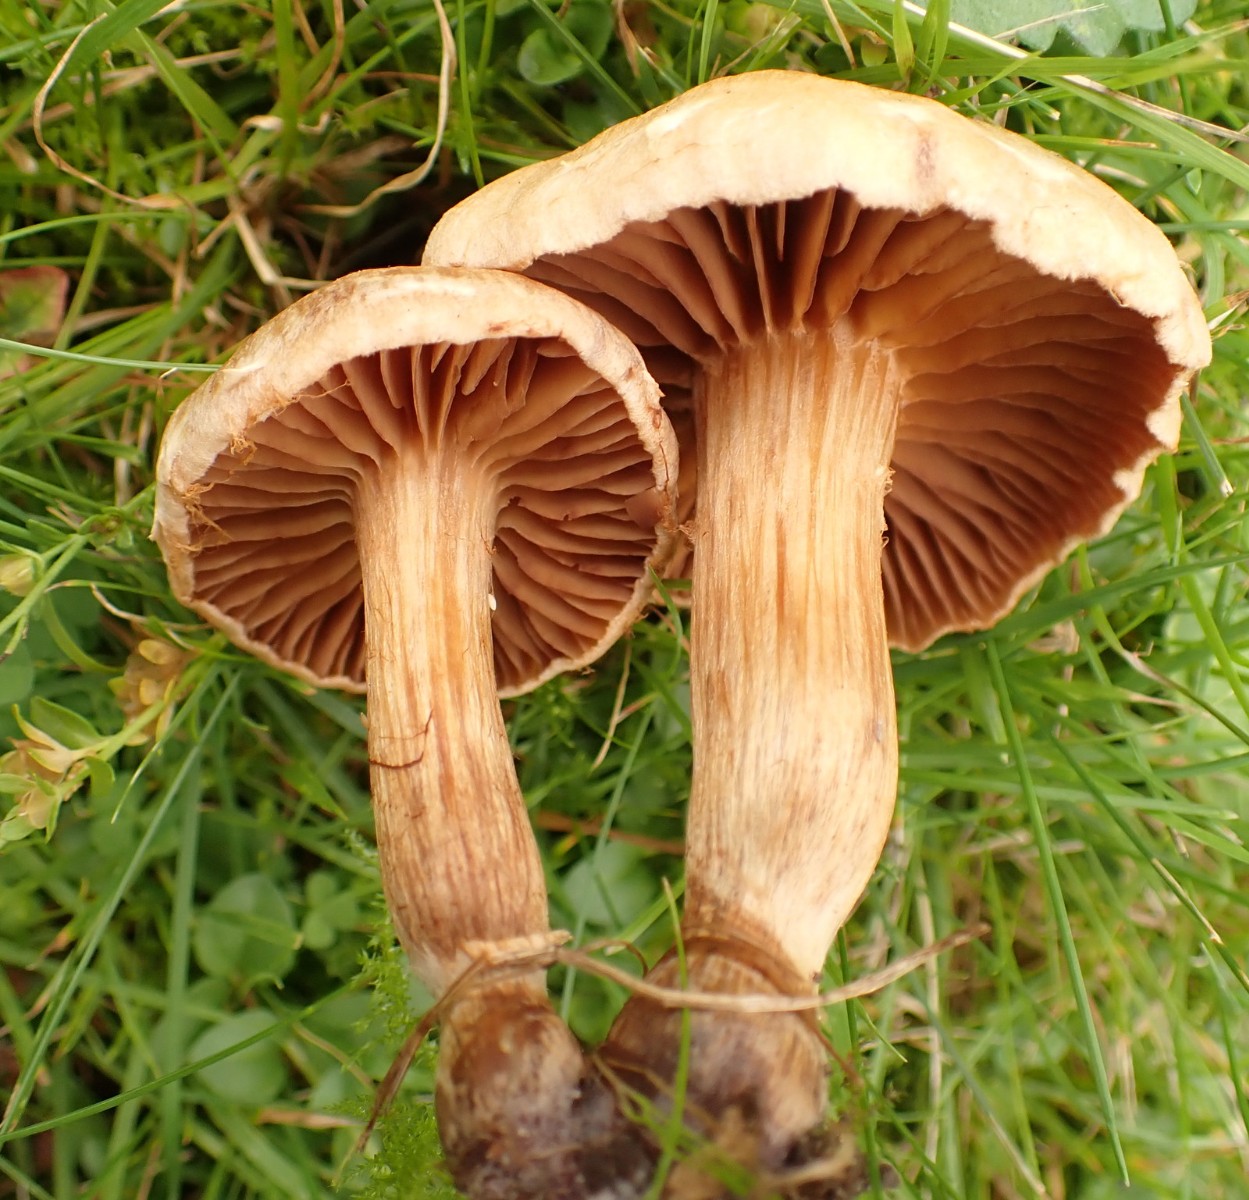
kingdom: Fungi
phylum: Basidiomycota
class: Agaricomycetes
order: Agaricales
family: Cortinariaceae
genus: Cortinarius
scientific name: Cortinarius hinnuleus
